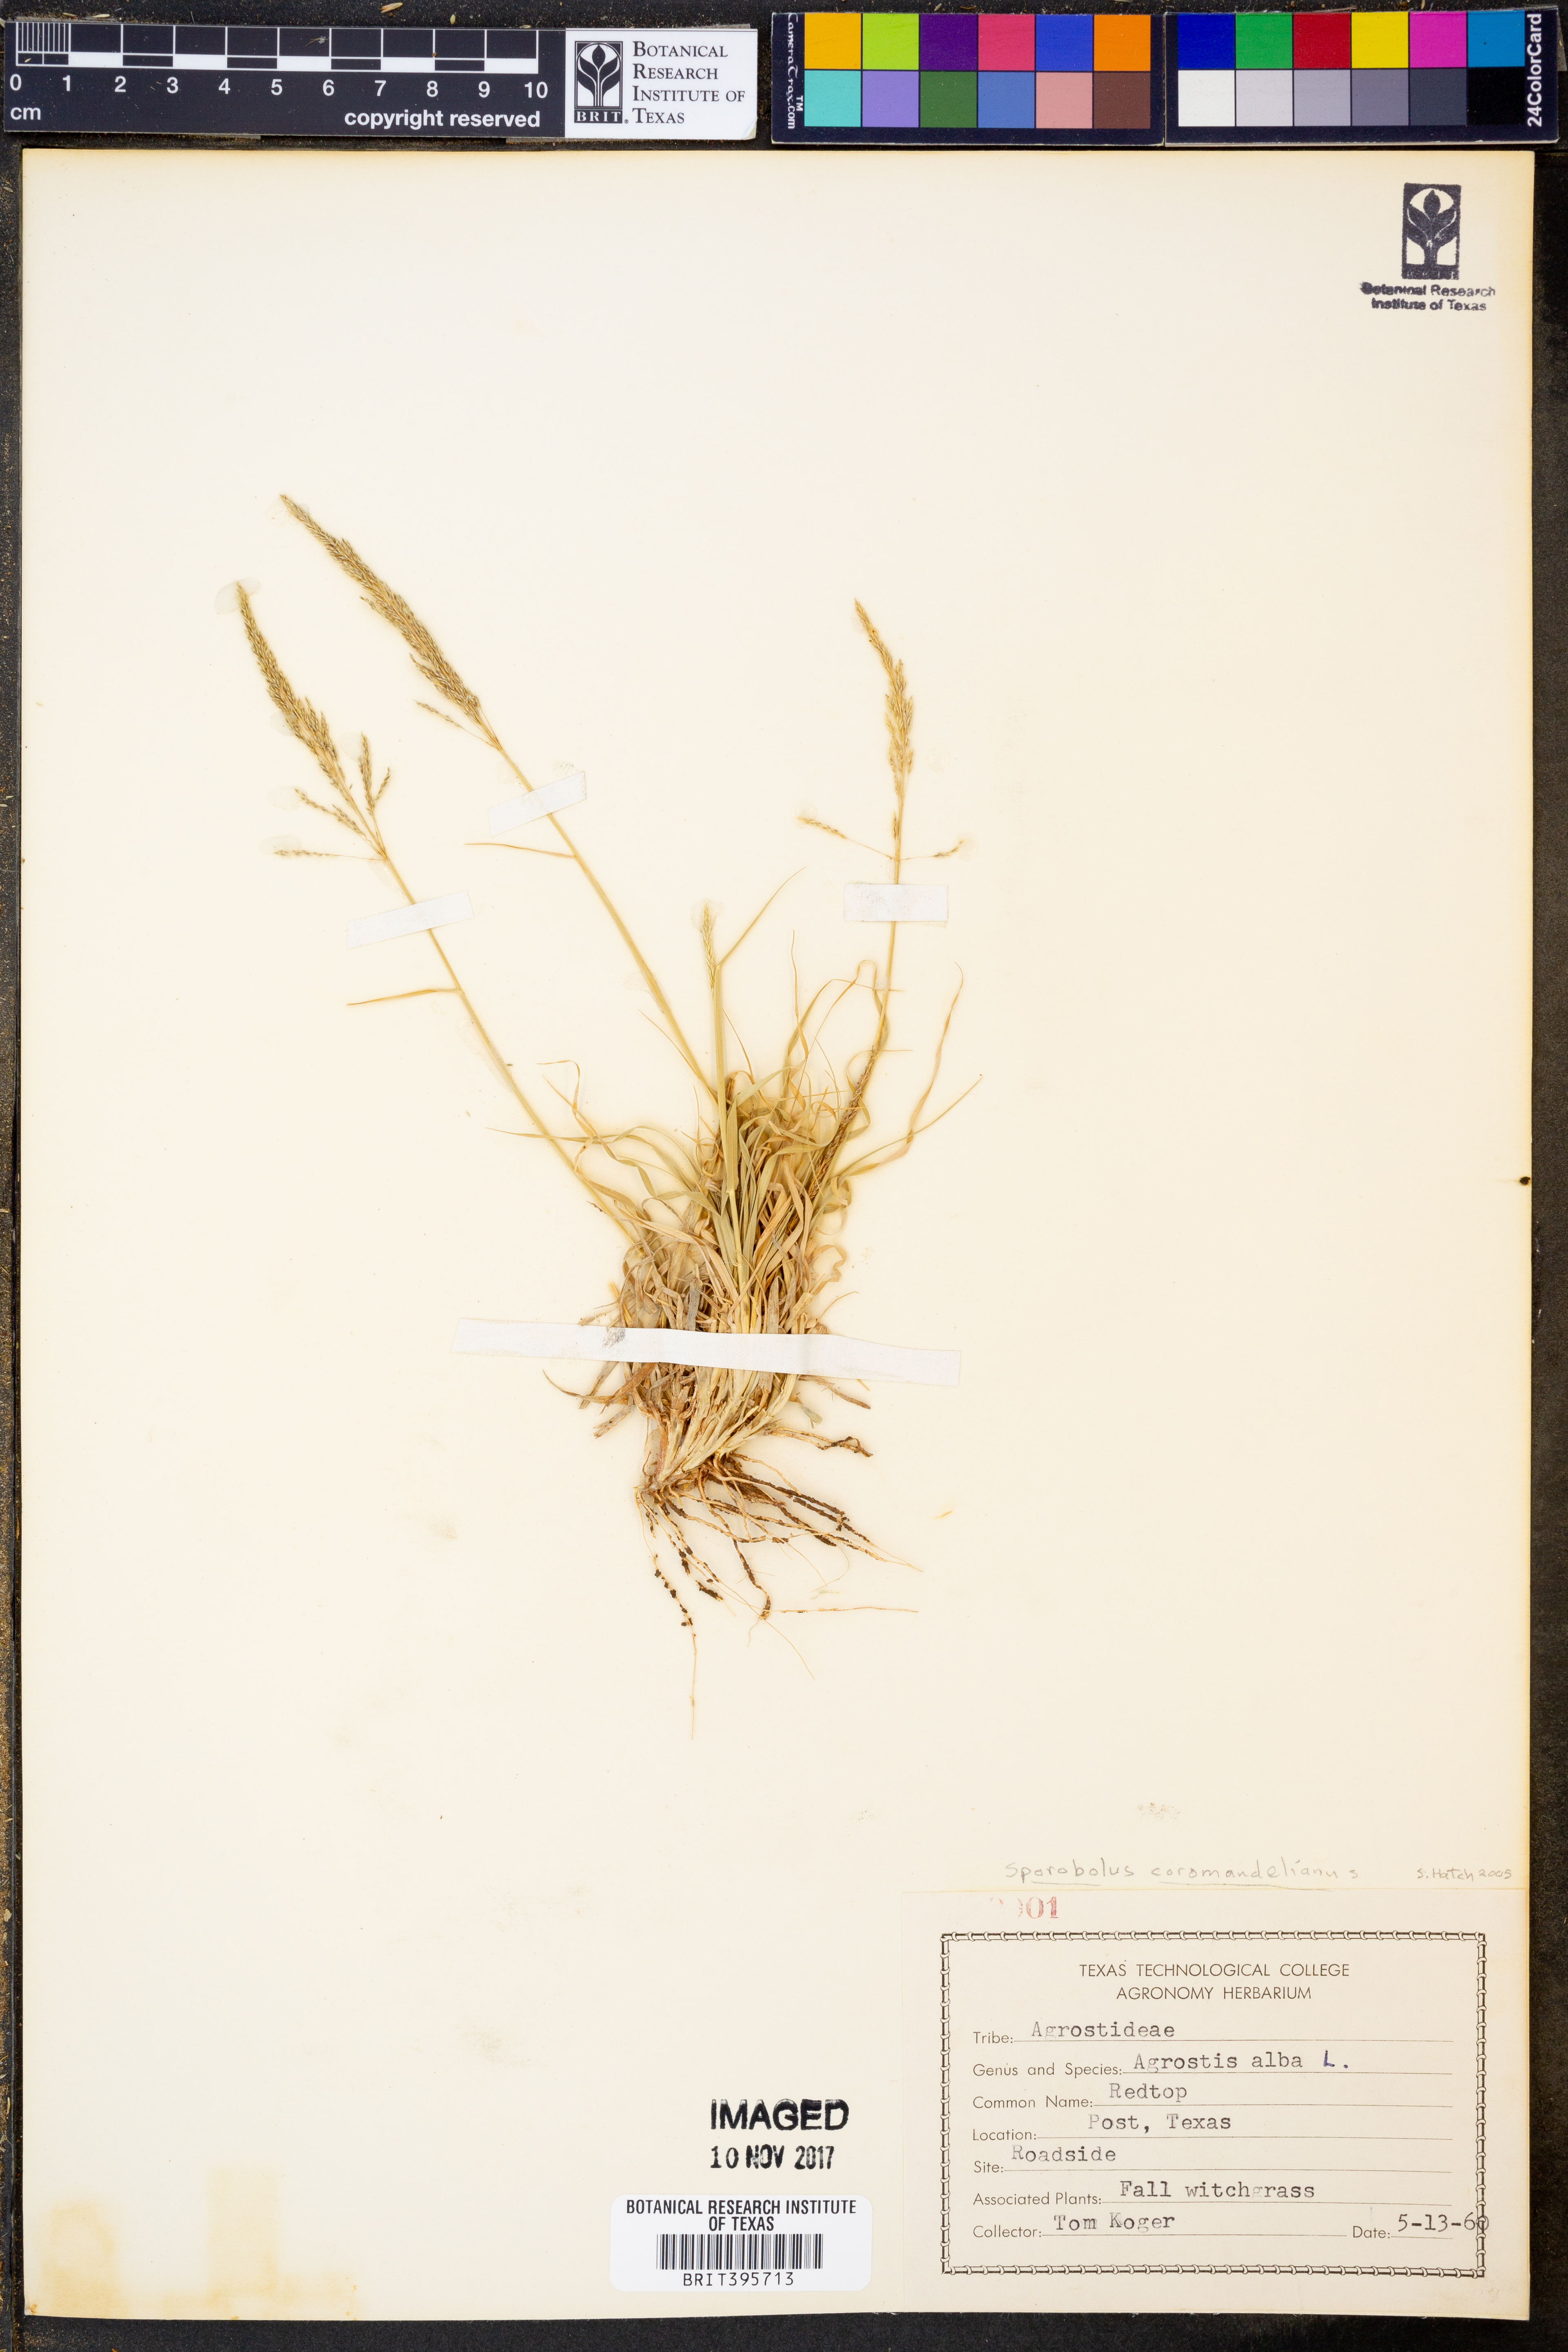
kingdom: Plantae
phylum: Tracheophyta
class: Liliopsida
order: Poales
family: Poaceae
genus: Sporobolus
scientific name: Sporobolus coromandelianus
